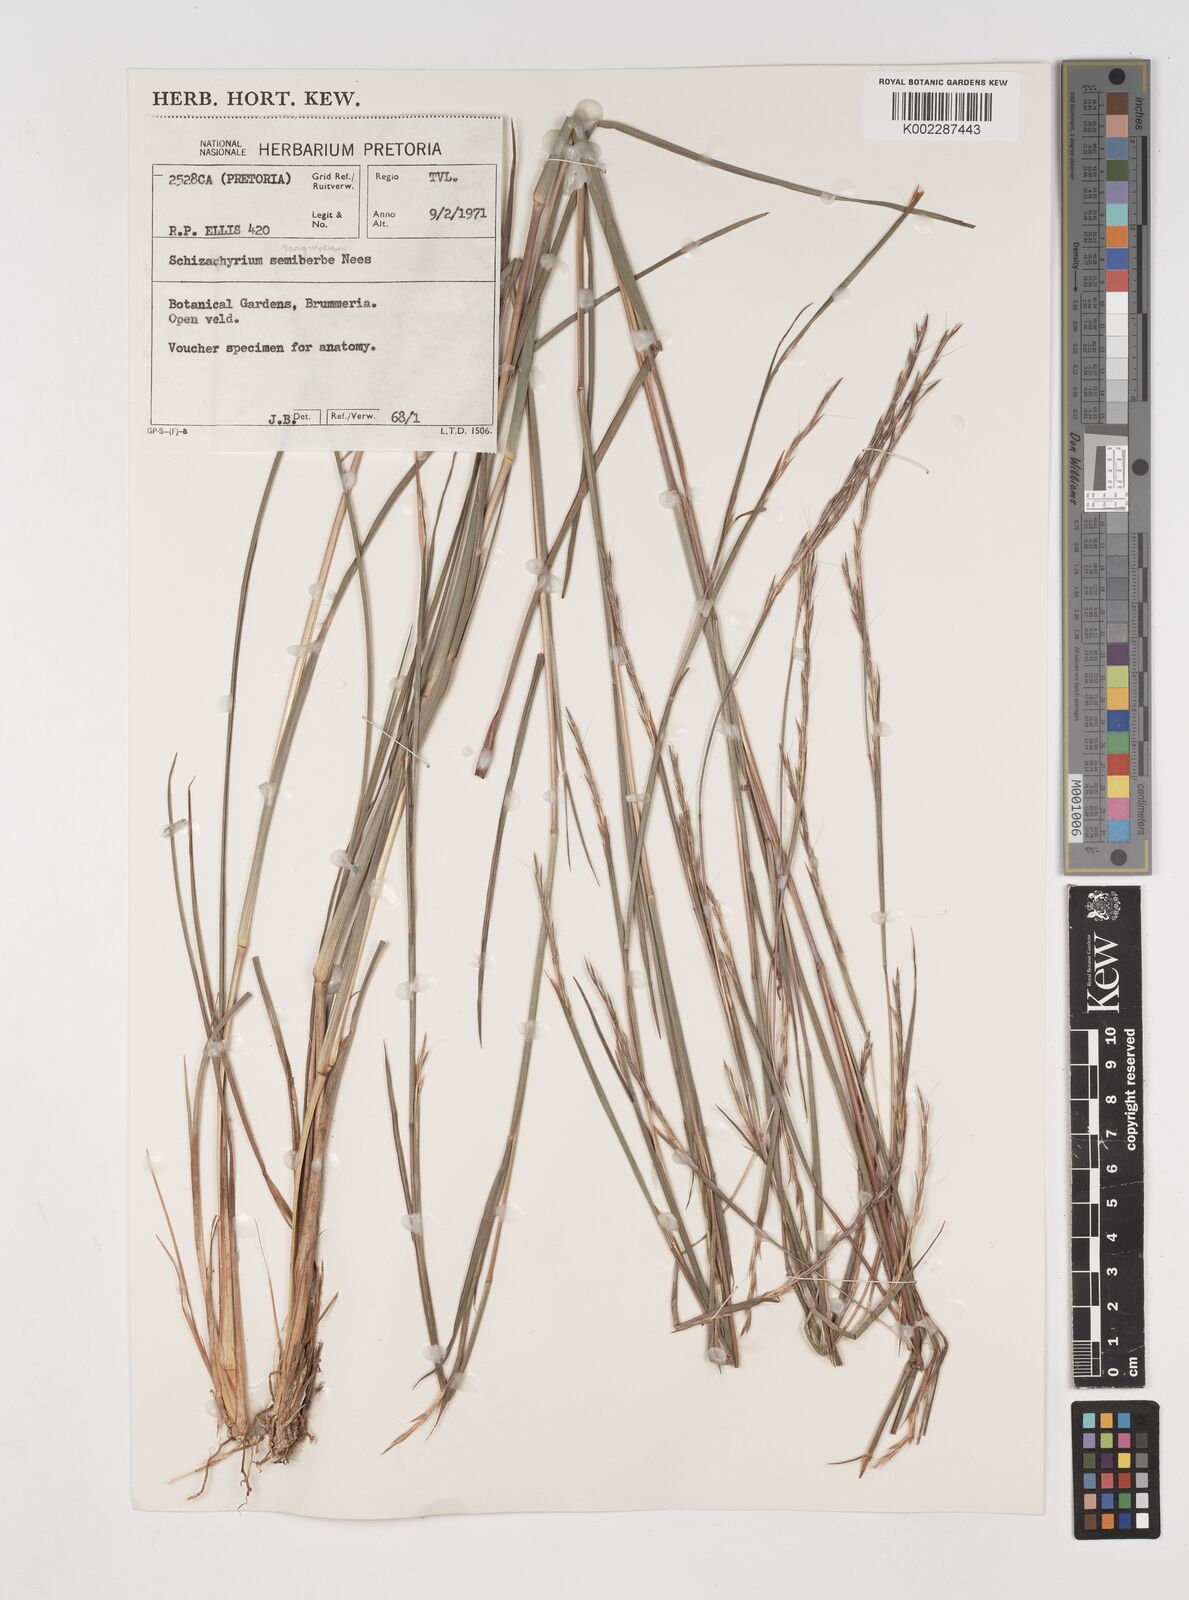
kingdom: Plantae
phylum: Tracheophyta
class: Liliopsida
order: Poales
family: Poaceae
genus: Schizachyrium
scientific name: Schizachyrium sanguineum
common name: Crimson bluestem
